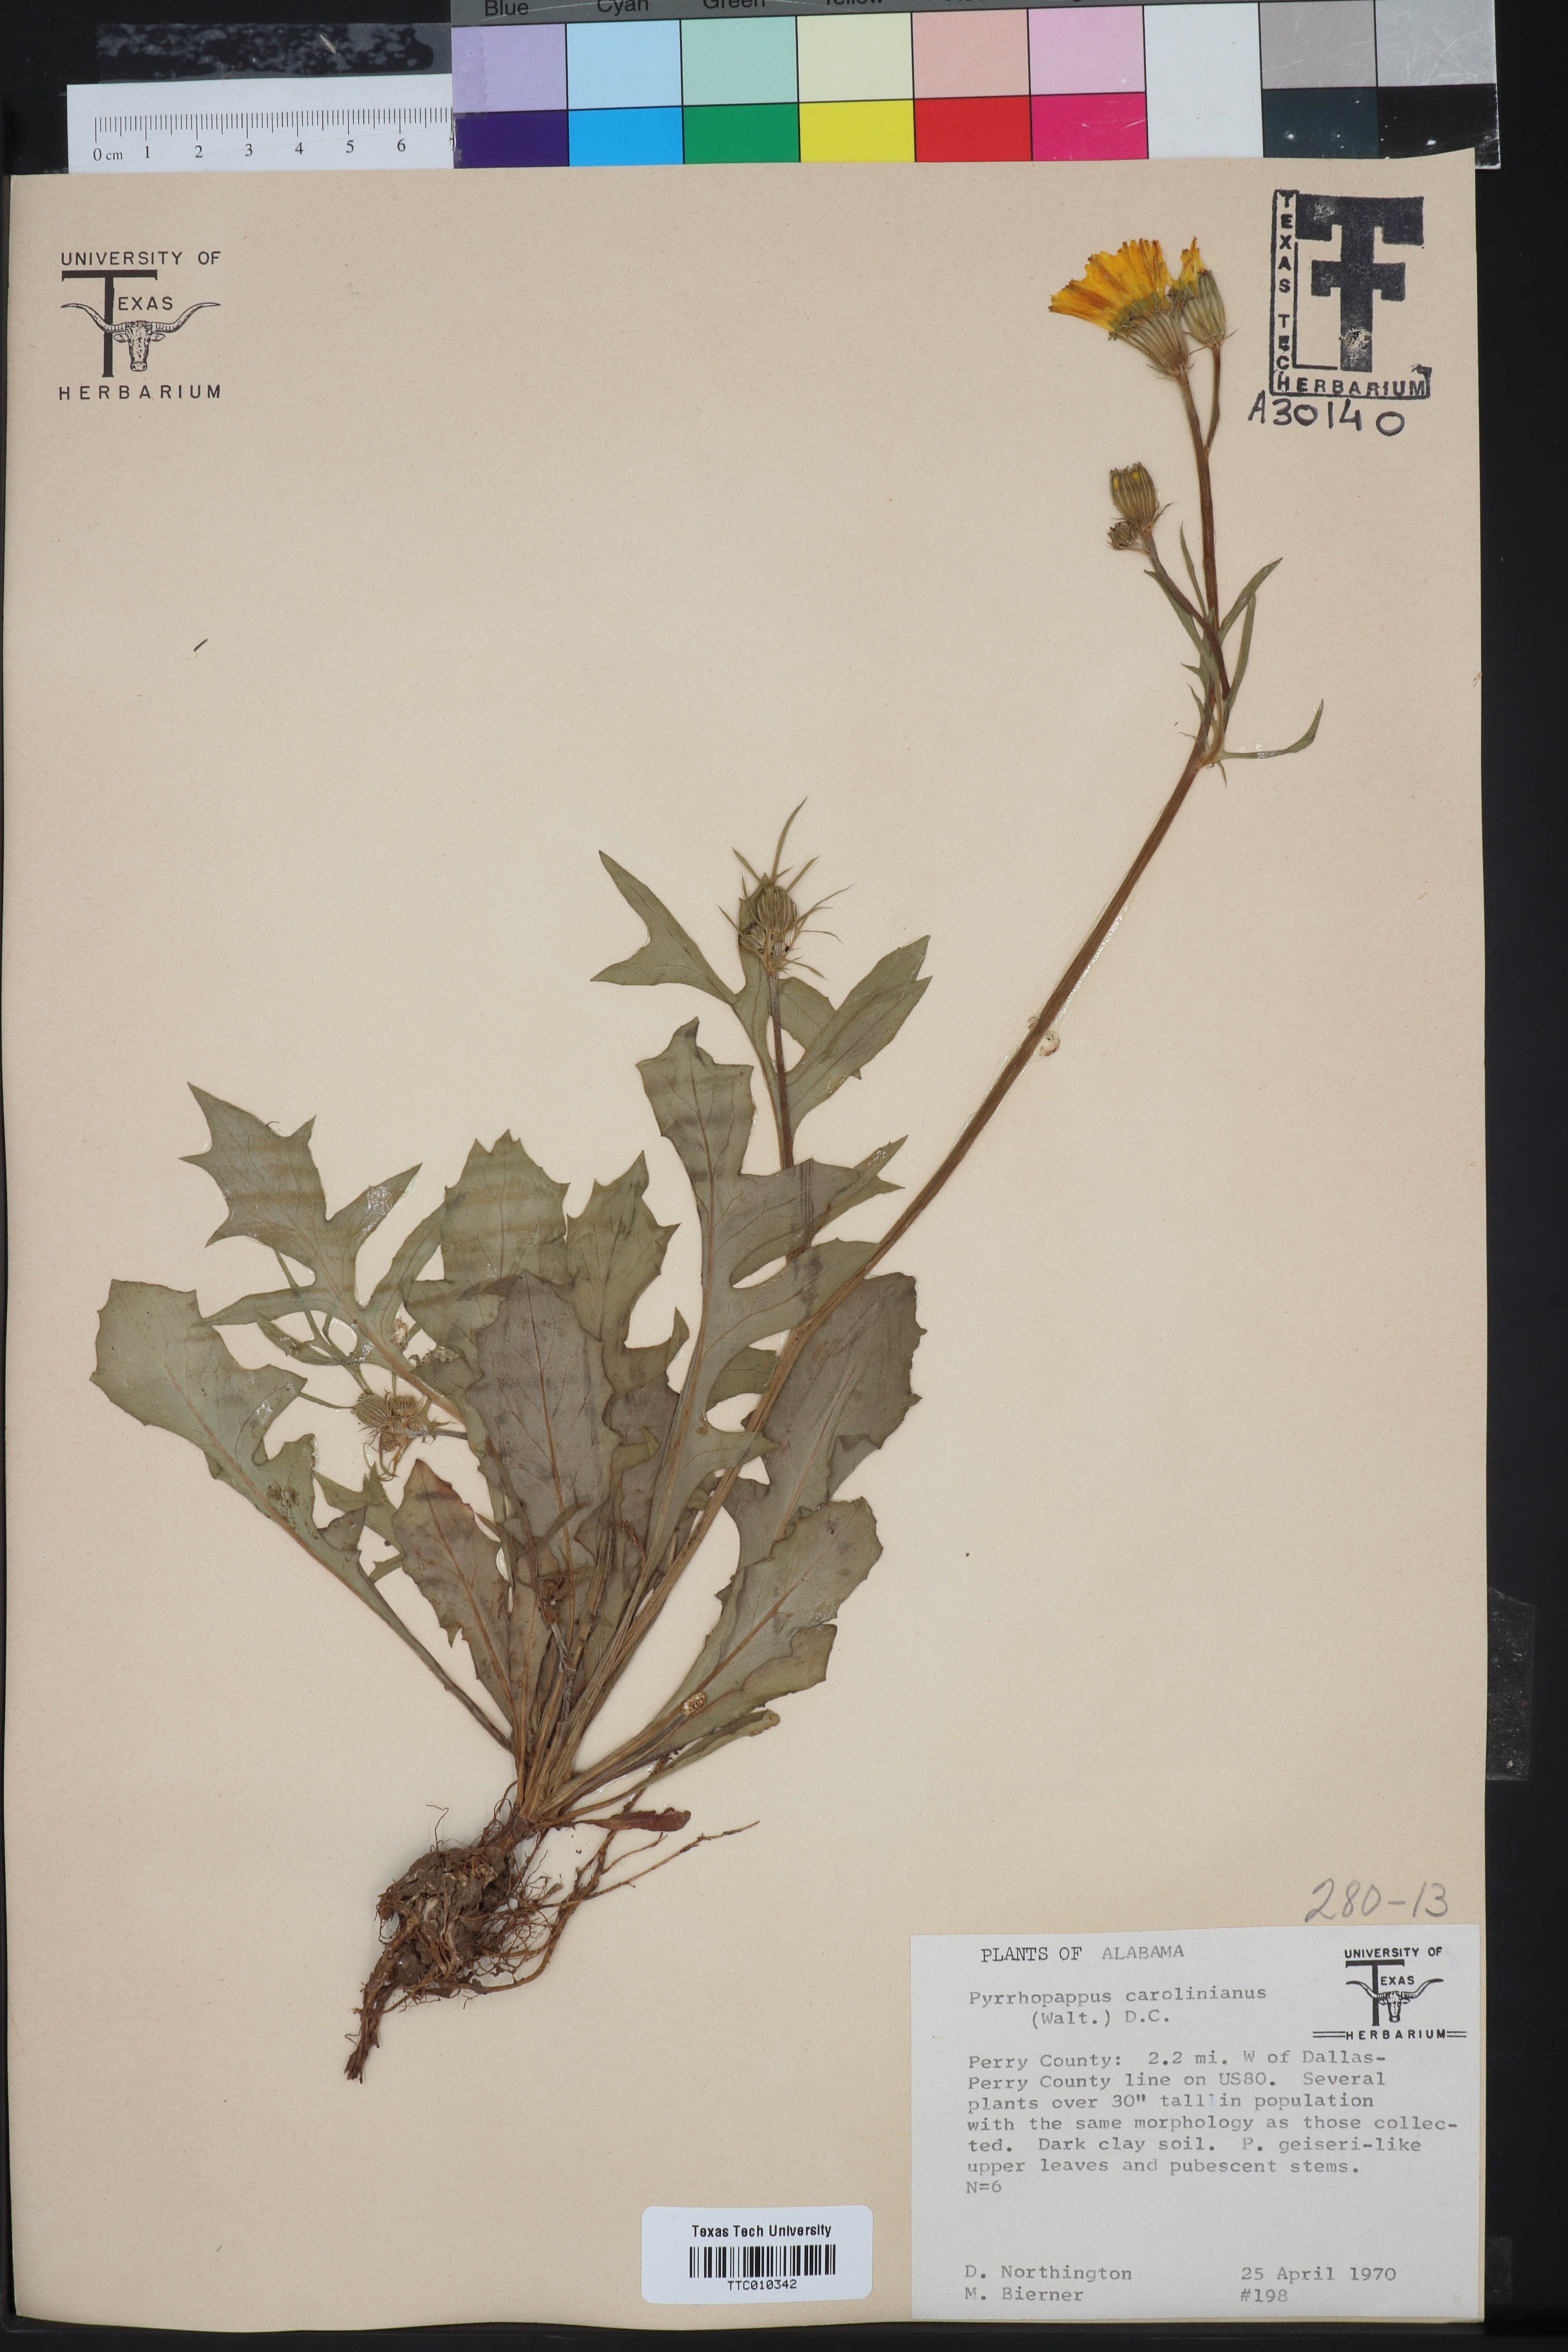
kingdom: Plantae
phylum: Tracheophyta
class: Magnoliopsida
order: Asterales
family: Asteraceae
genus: Pyrrhopappus
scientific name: Pyrrhopappus carolinianus
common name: Carolina desert-chicory
